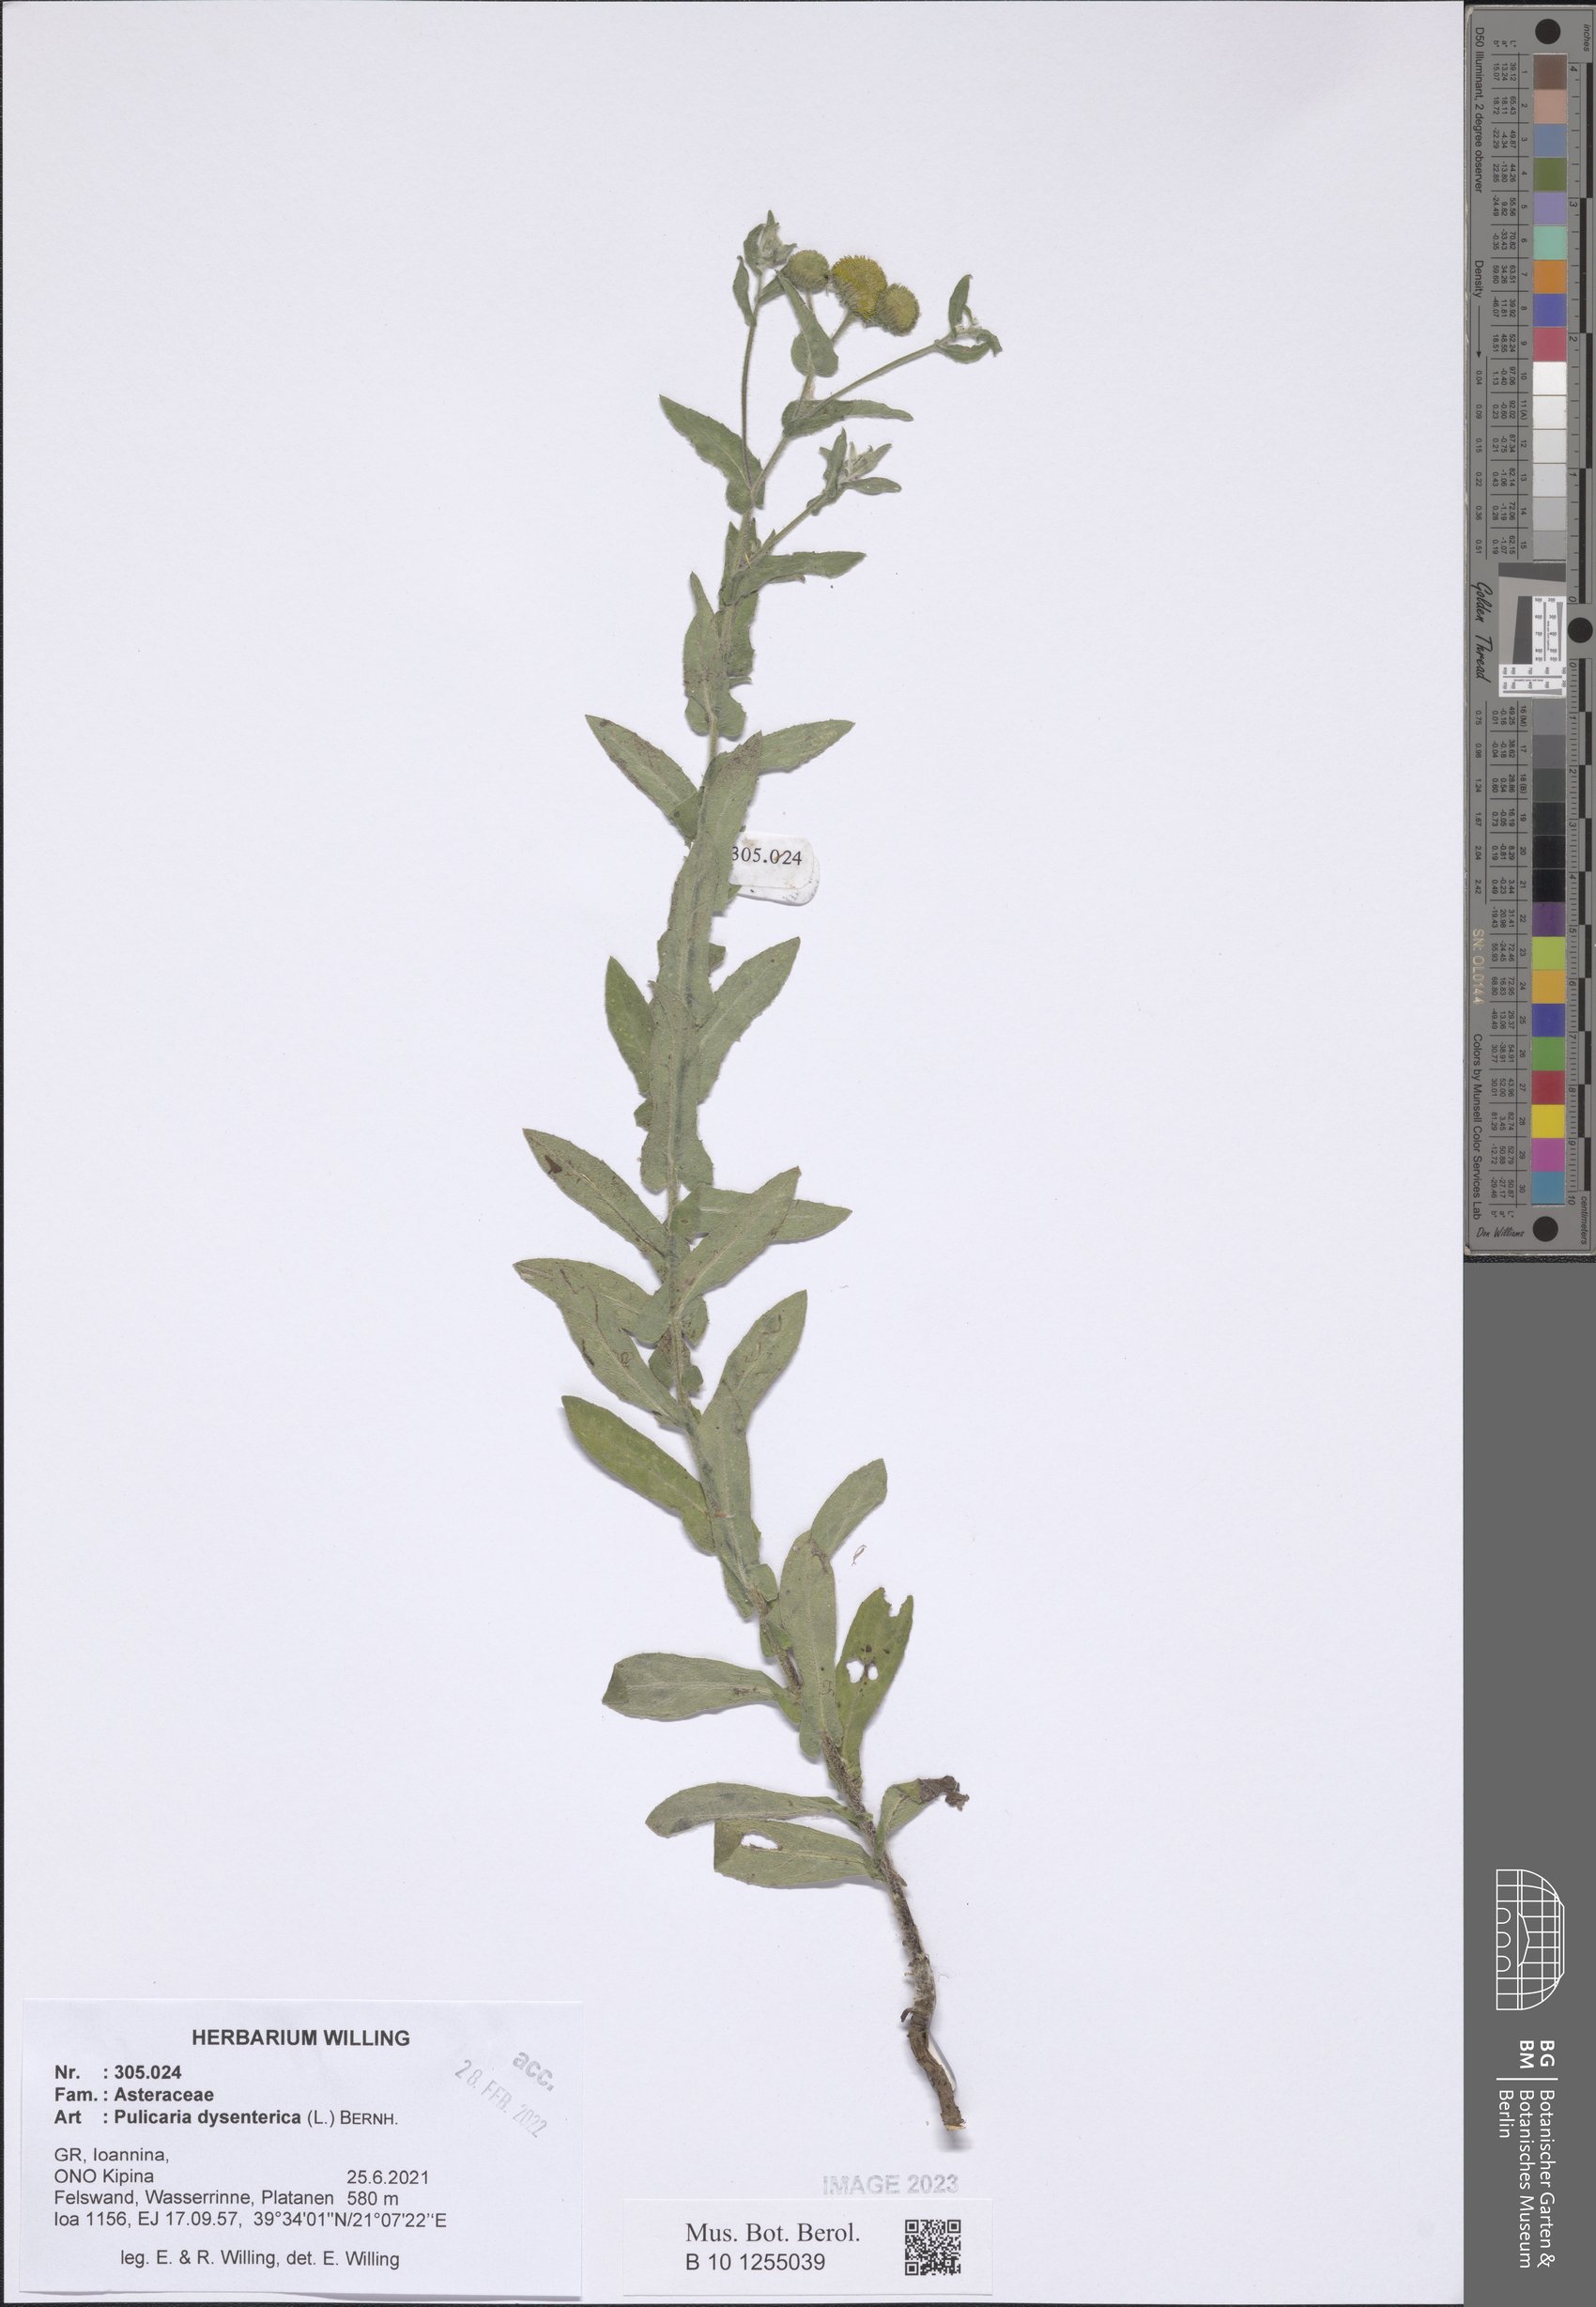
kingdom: Plantae
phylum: Tracheophyta
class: Magnoliopsida
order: Asterales
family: Asteraceae
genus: Pulicaria
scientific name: Pulicaria dysenterica
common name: Common fleabane
